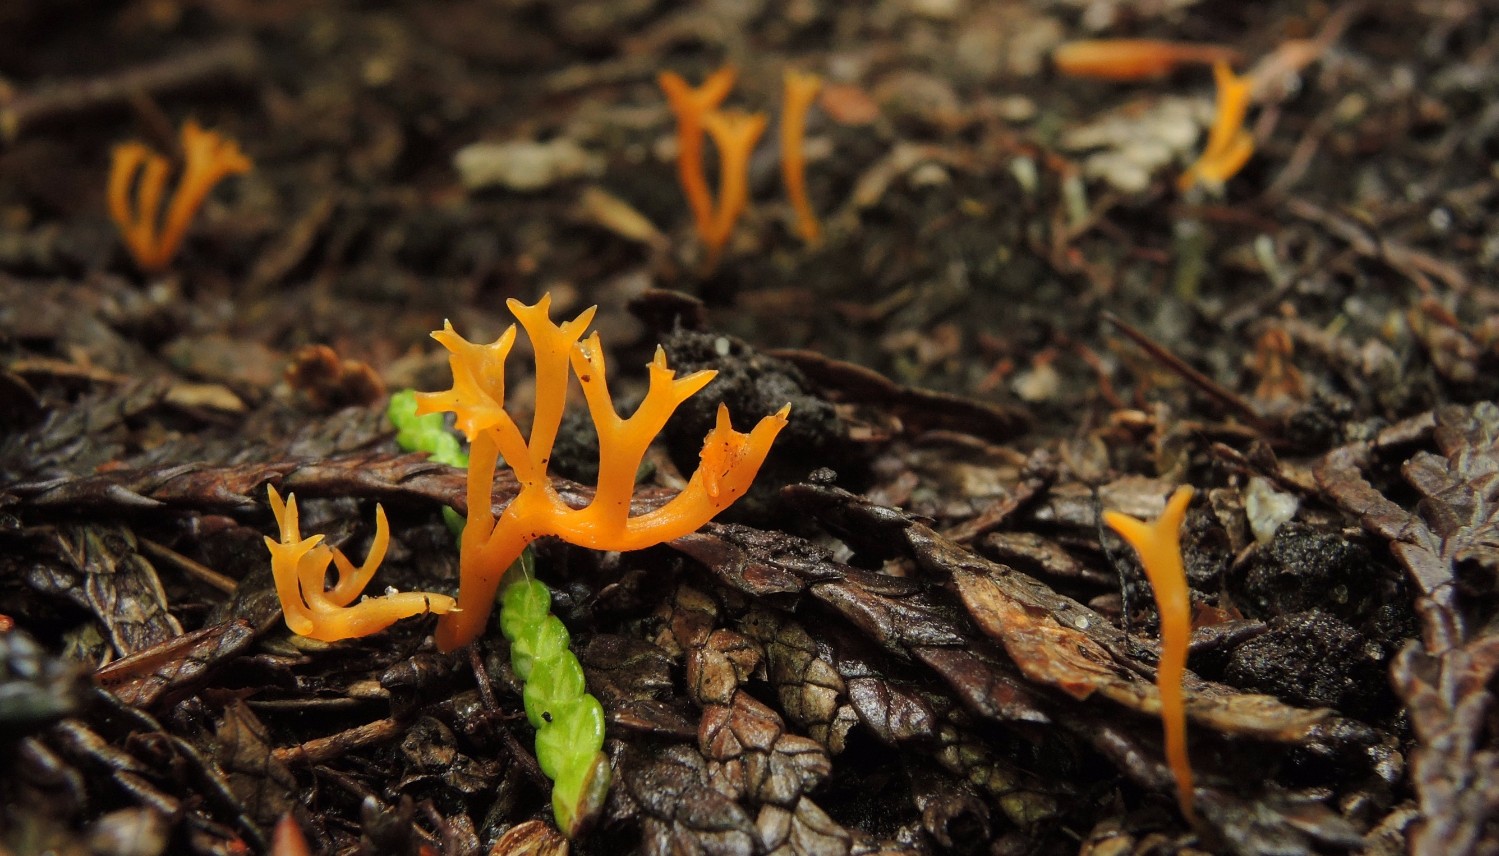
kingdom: Fungi
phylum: Basidiomycota
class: Agaricomycetes
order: Agaricales
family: Clavariaceae
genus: Ramariopsis
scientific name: Ramariopsis crocea
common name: gylden køllesvamp
